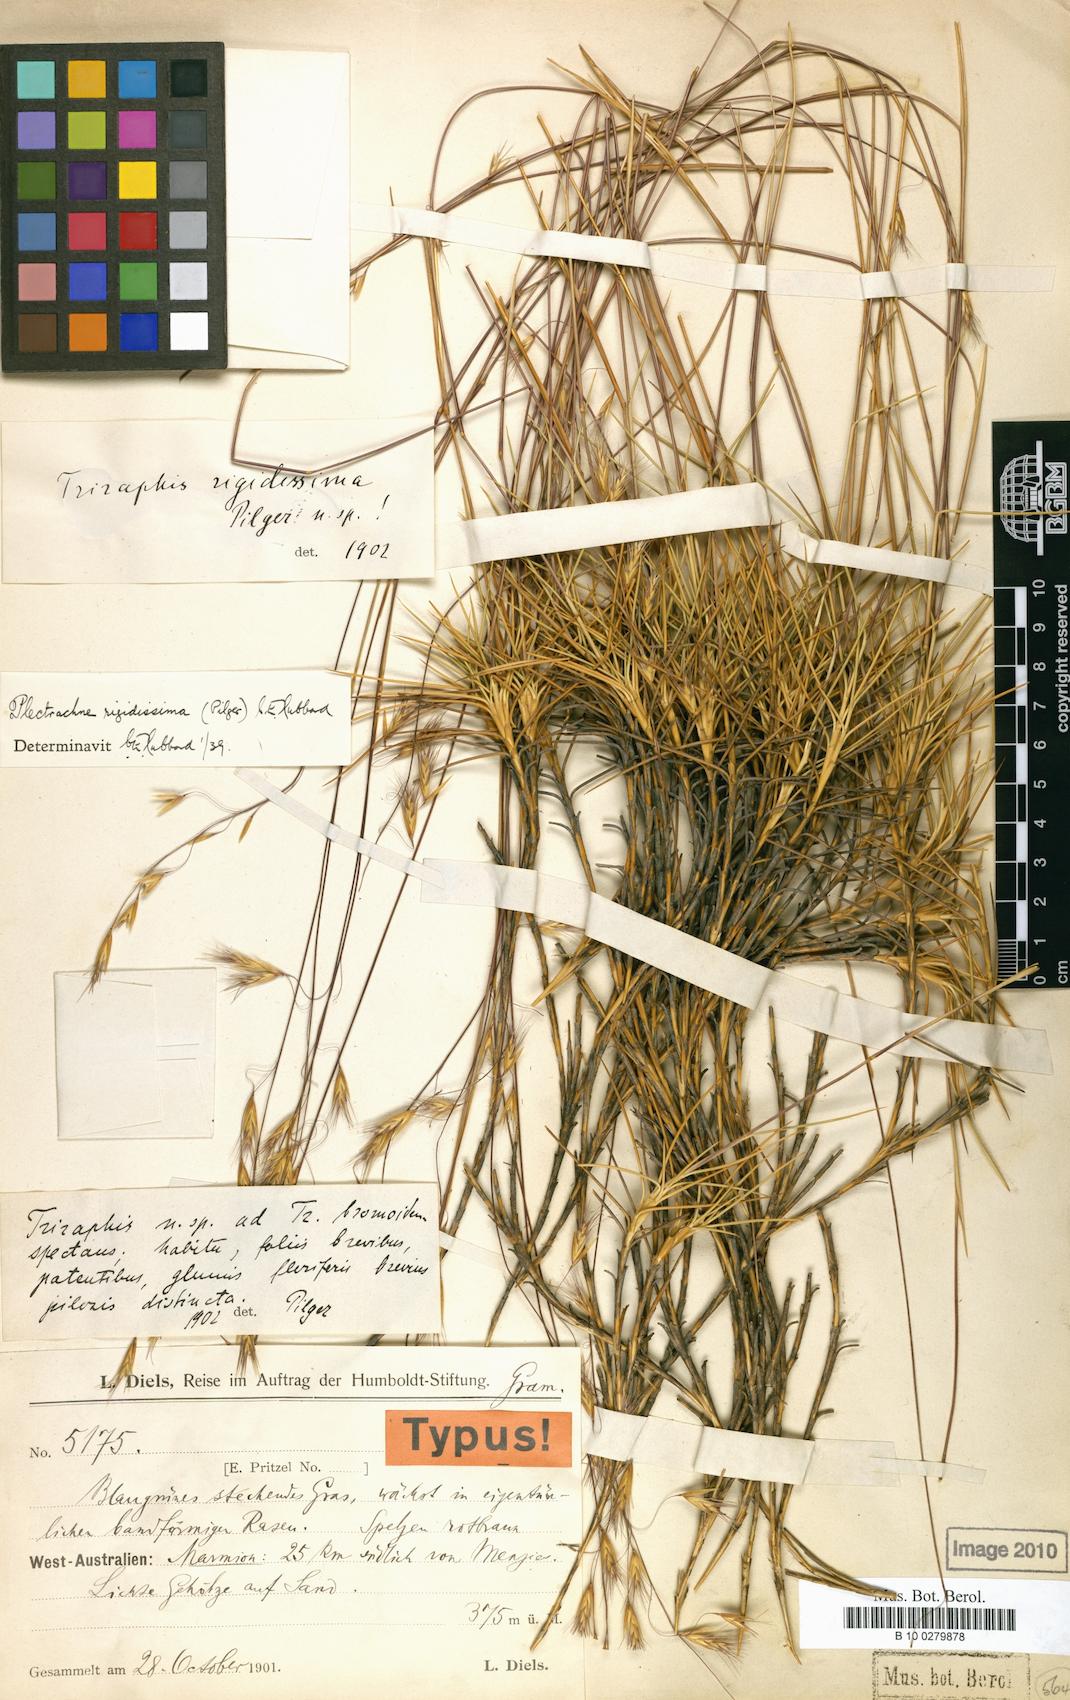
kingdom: Plantae
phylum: Tracheophyta
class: Liliopsida
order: Poales
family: Poaceae
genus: Triodia
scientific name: Triodia rigidissima
